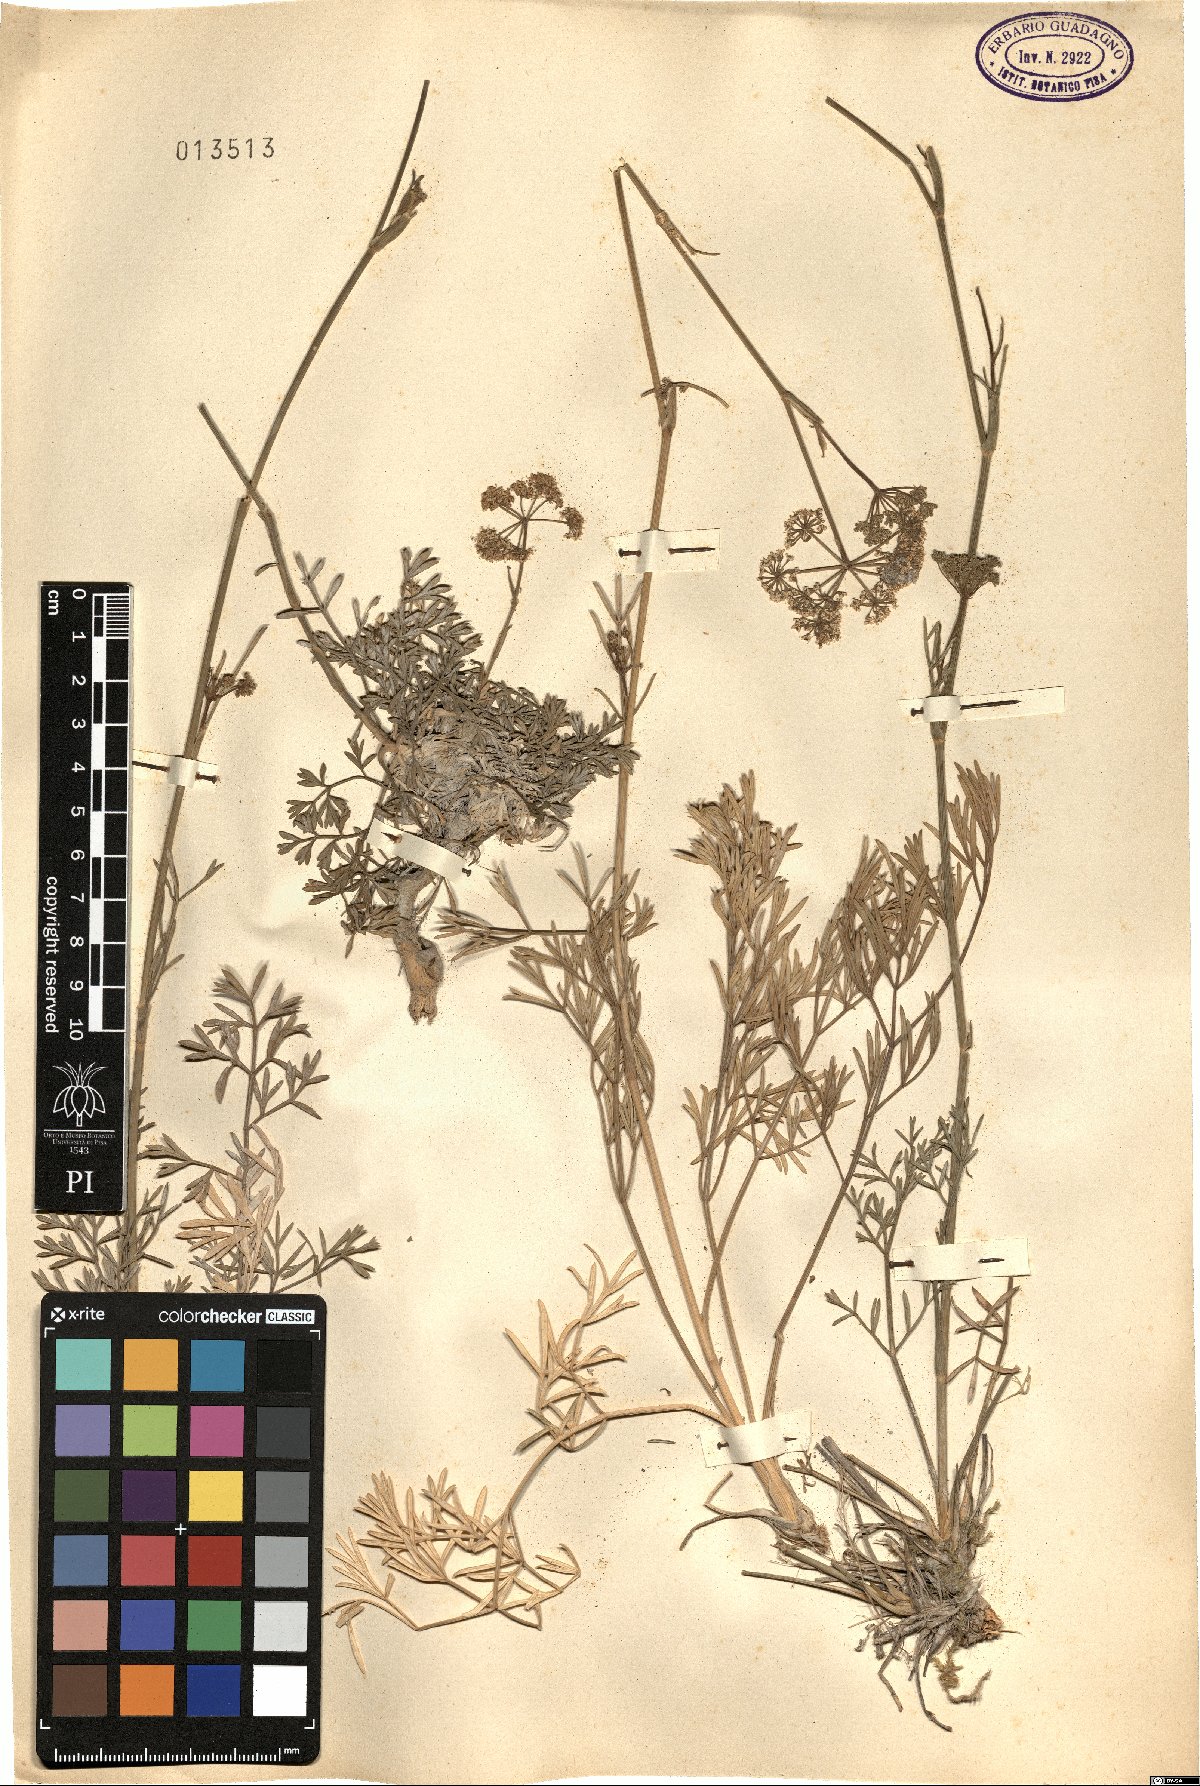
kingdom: Plantae
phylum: Tracheophyta
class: Magnoliopsida
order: Apiales
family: Apiaceae
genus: Seseli
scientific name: Seseli
